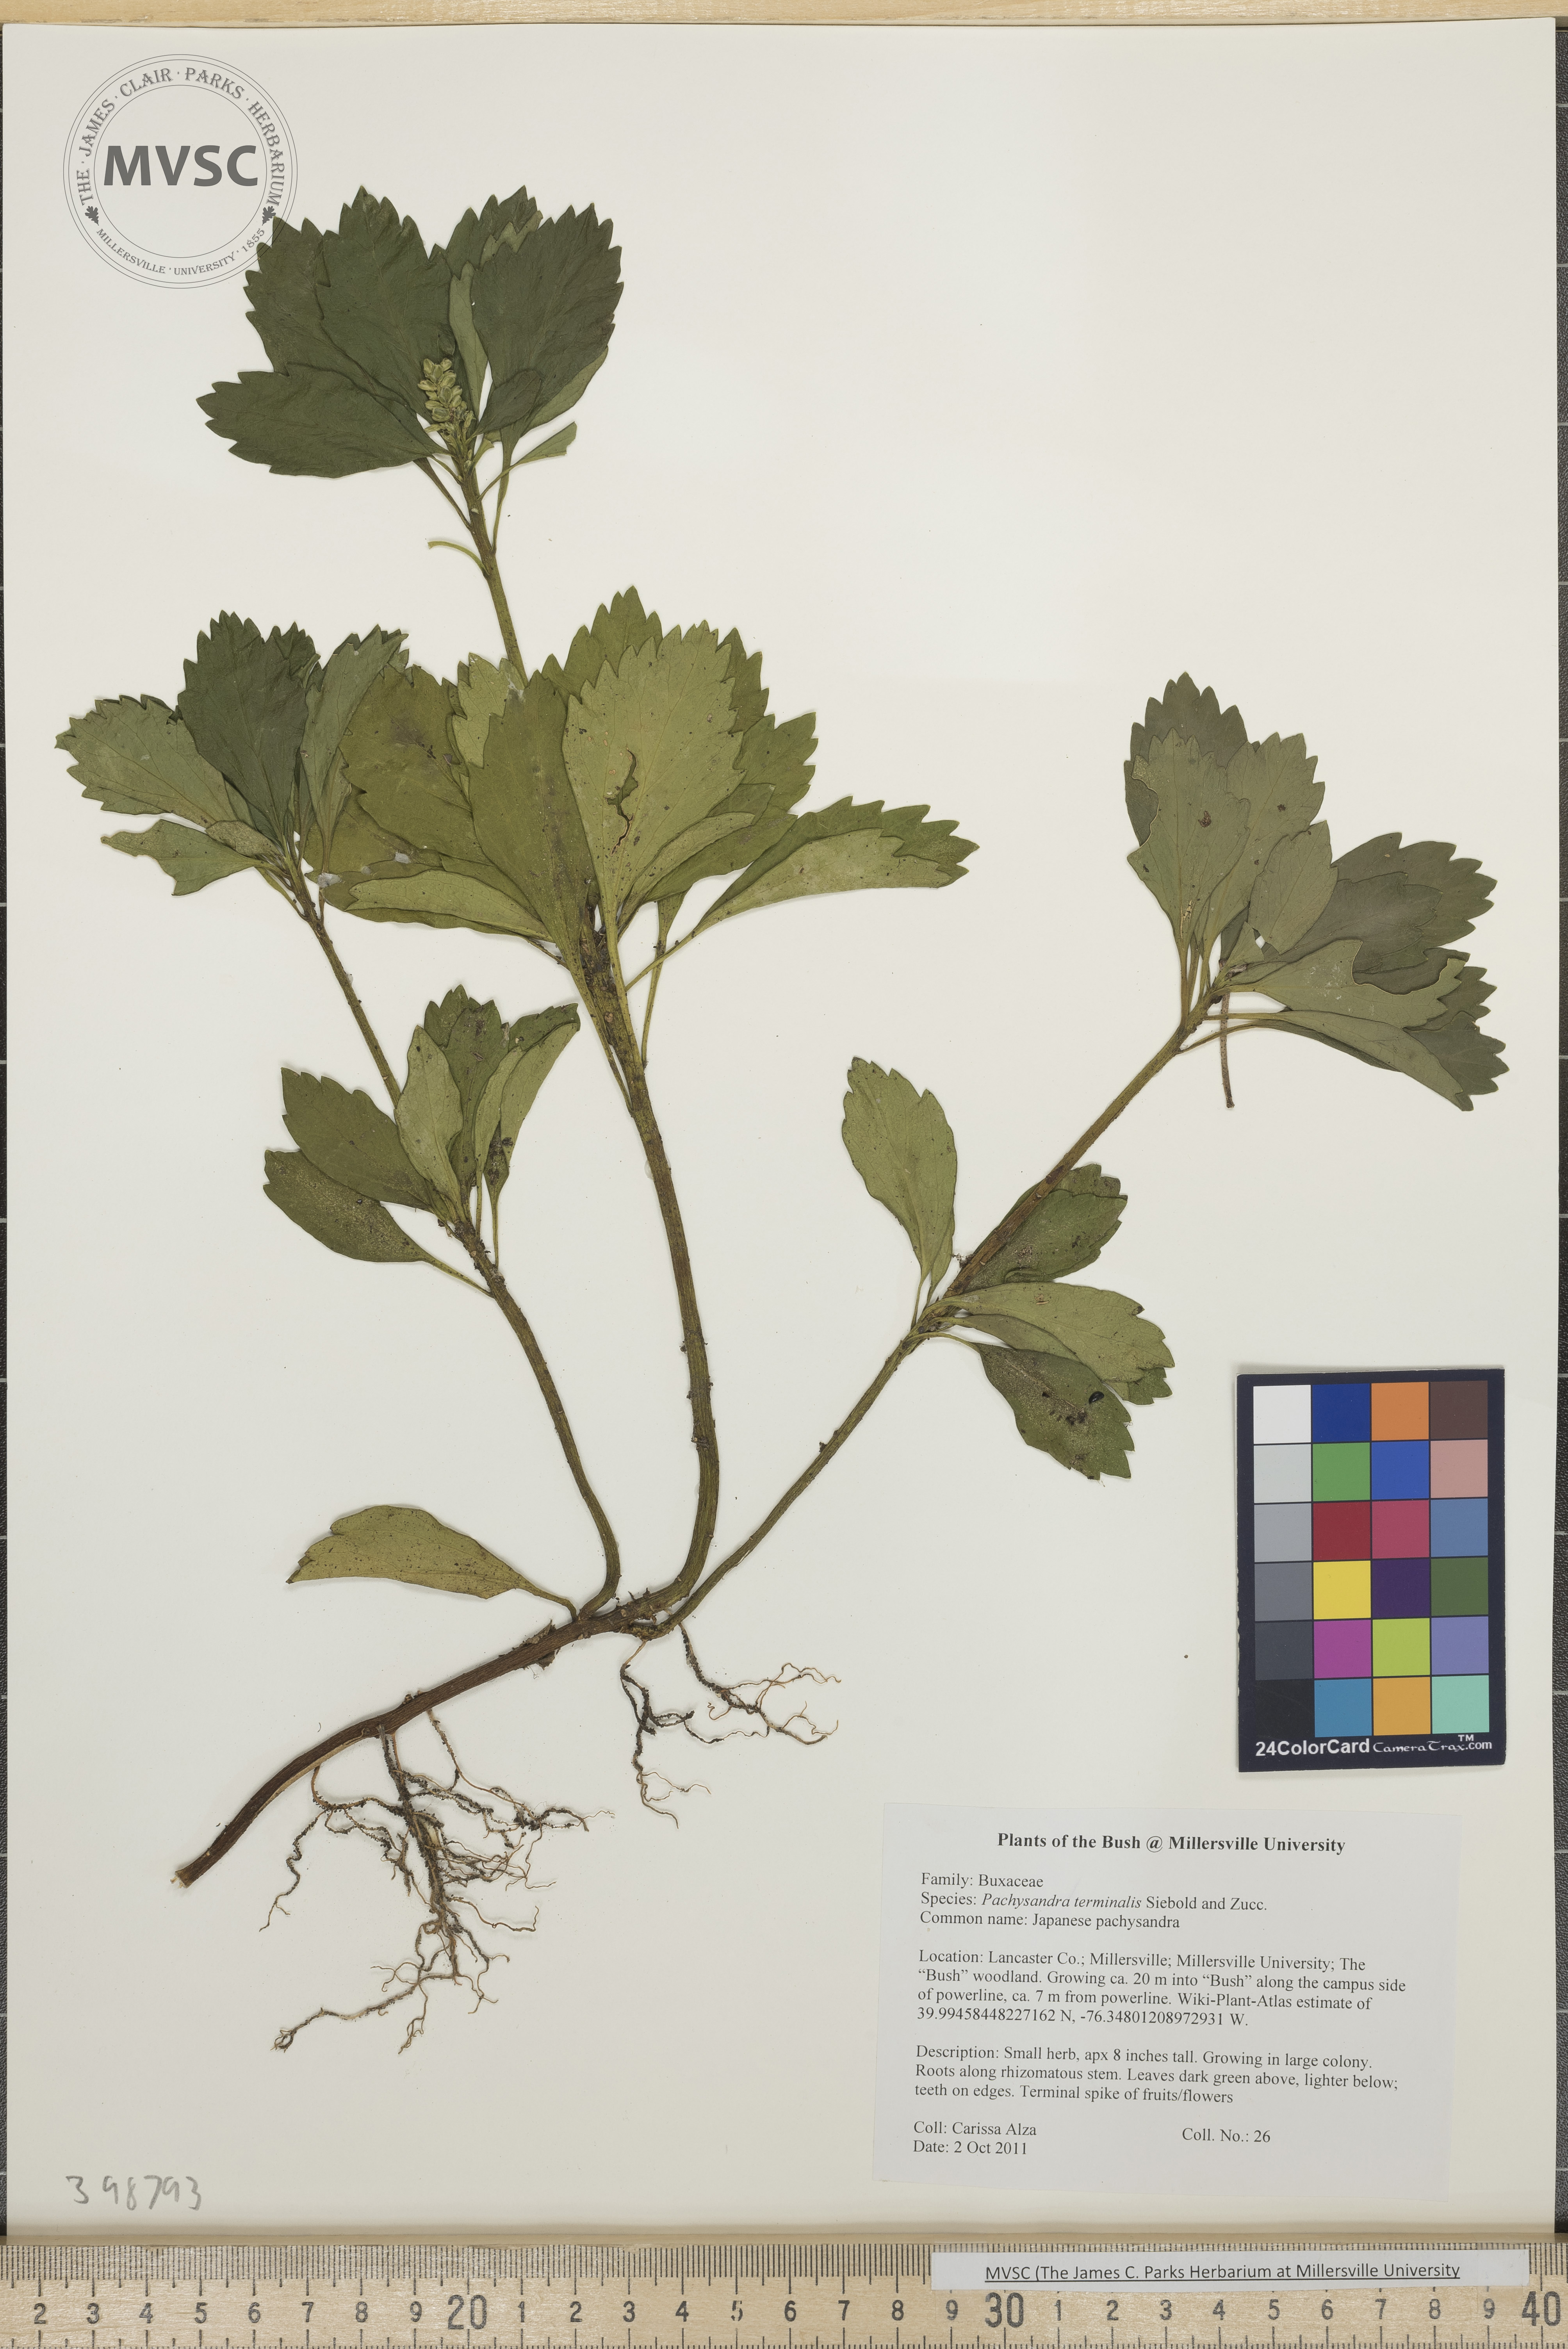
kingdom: Plantae
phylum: Tracheophyta
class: Magnoliopsida
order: Buxales
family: Buxaceae
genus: Pachysandra
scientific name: Pachysandra terminalis
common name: Japanese pachysandra
